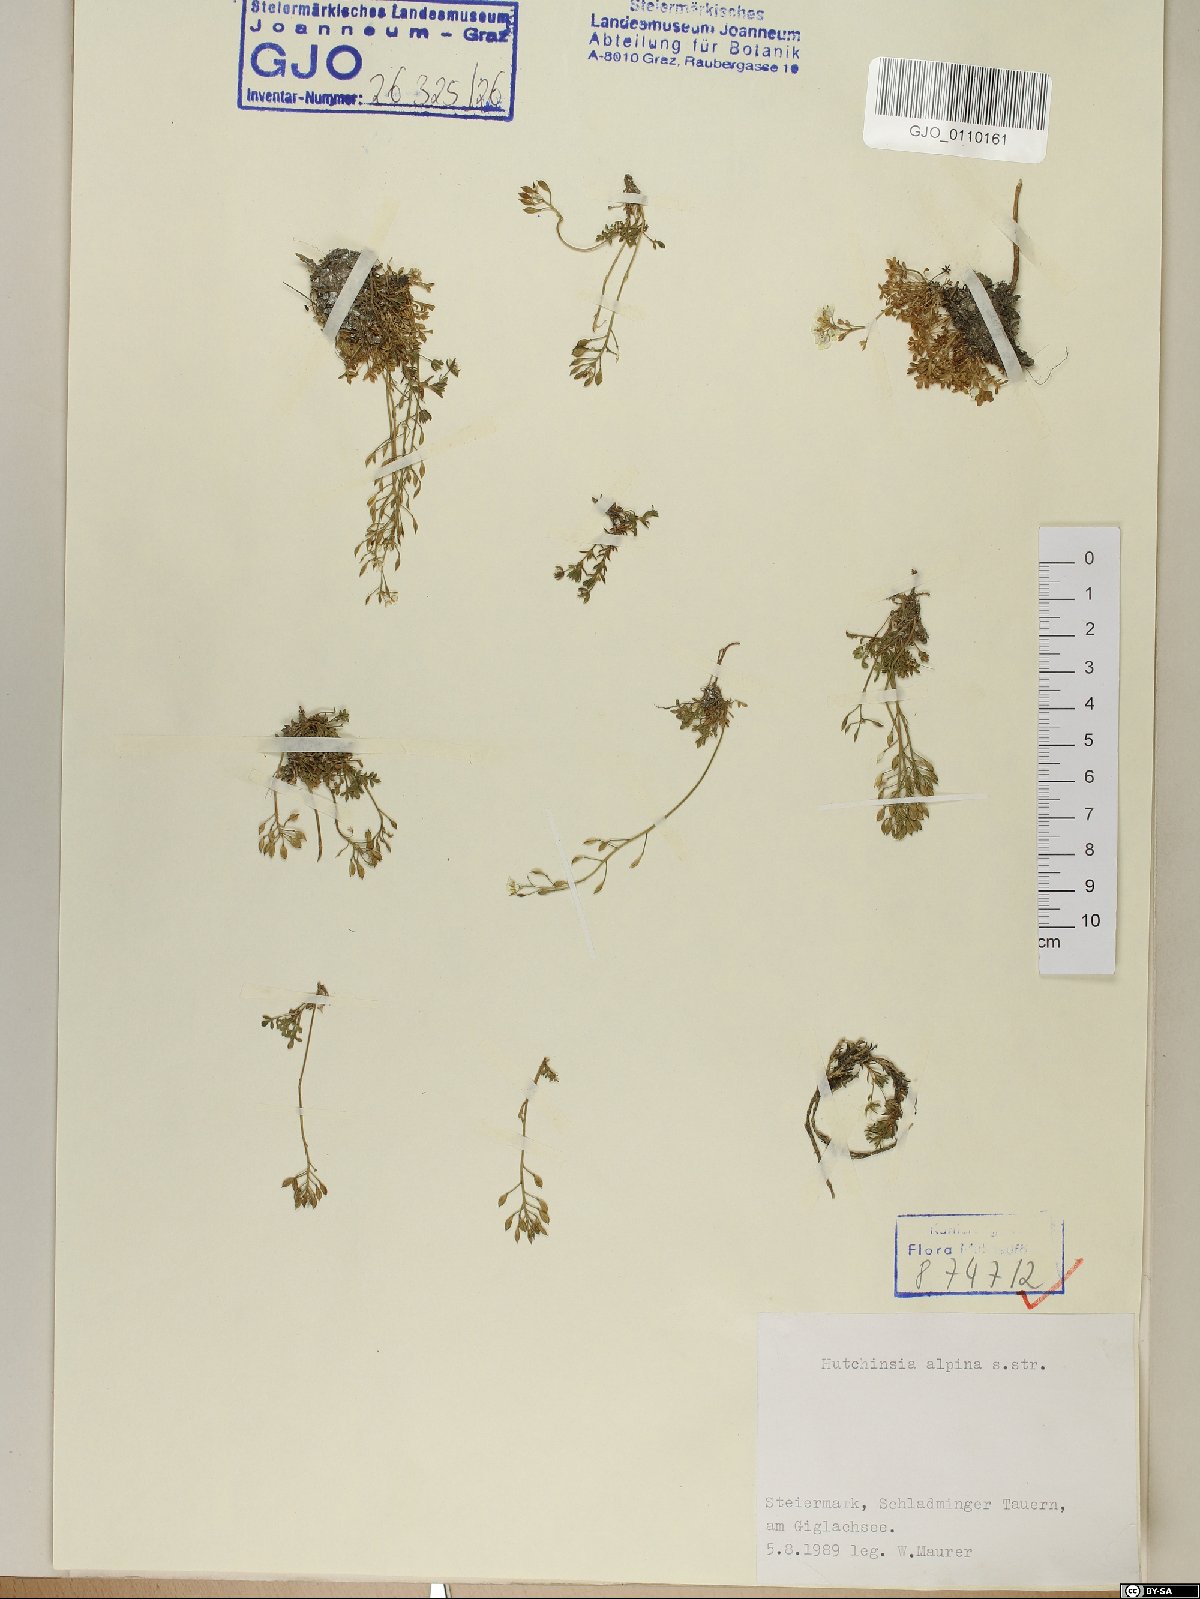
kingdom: Plantae
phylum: Tracheophyta
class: Magnoliopsida
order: Brassicales
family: Brassicaceae
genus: Hornungia
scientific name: Hornungia alpina
